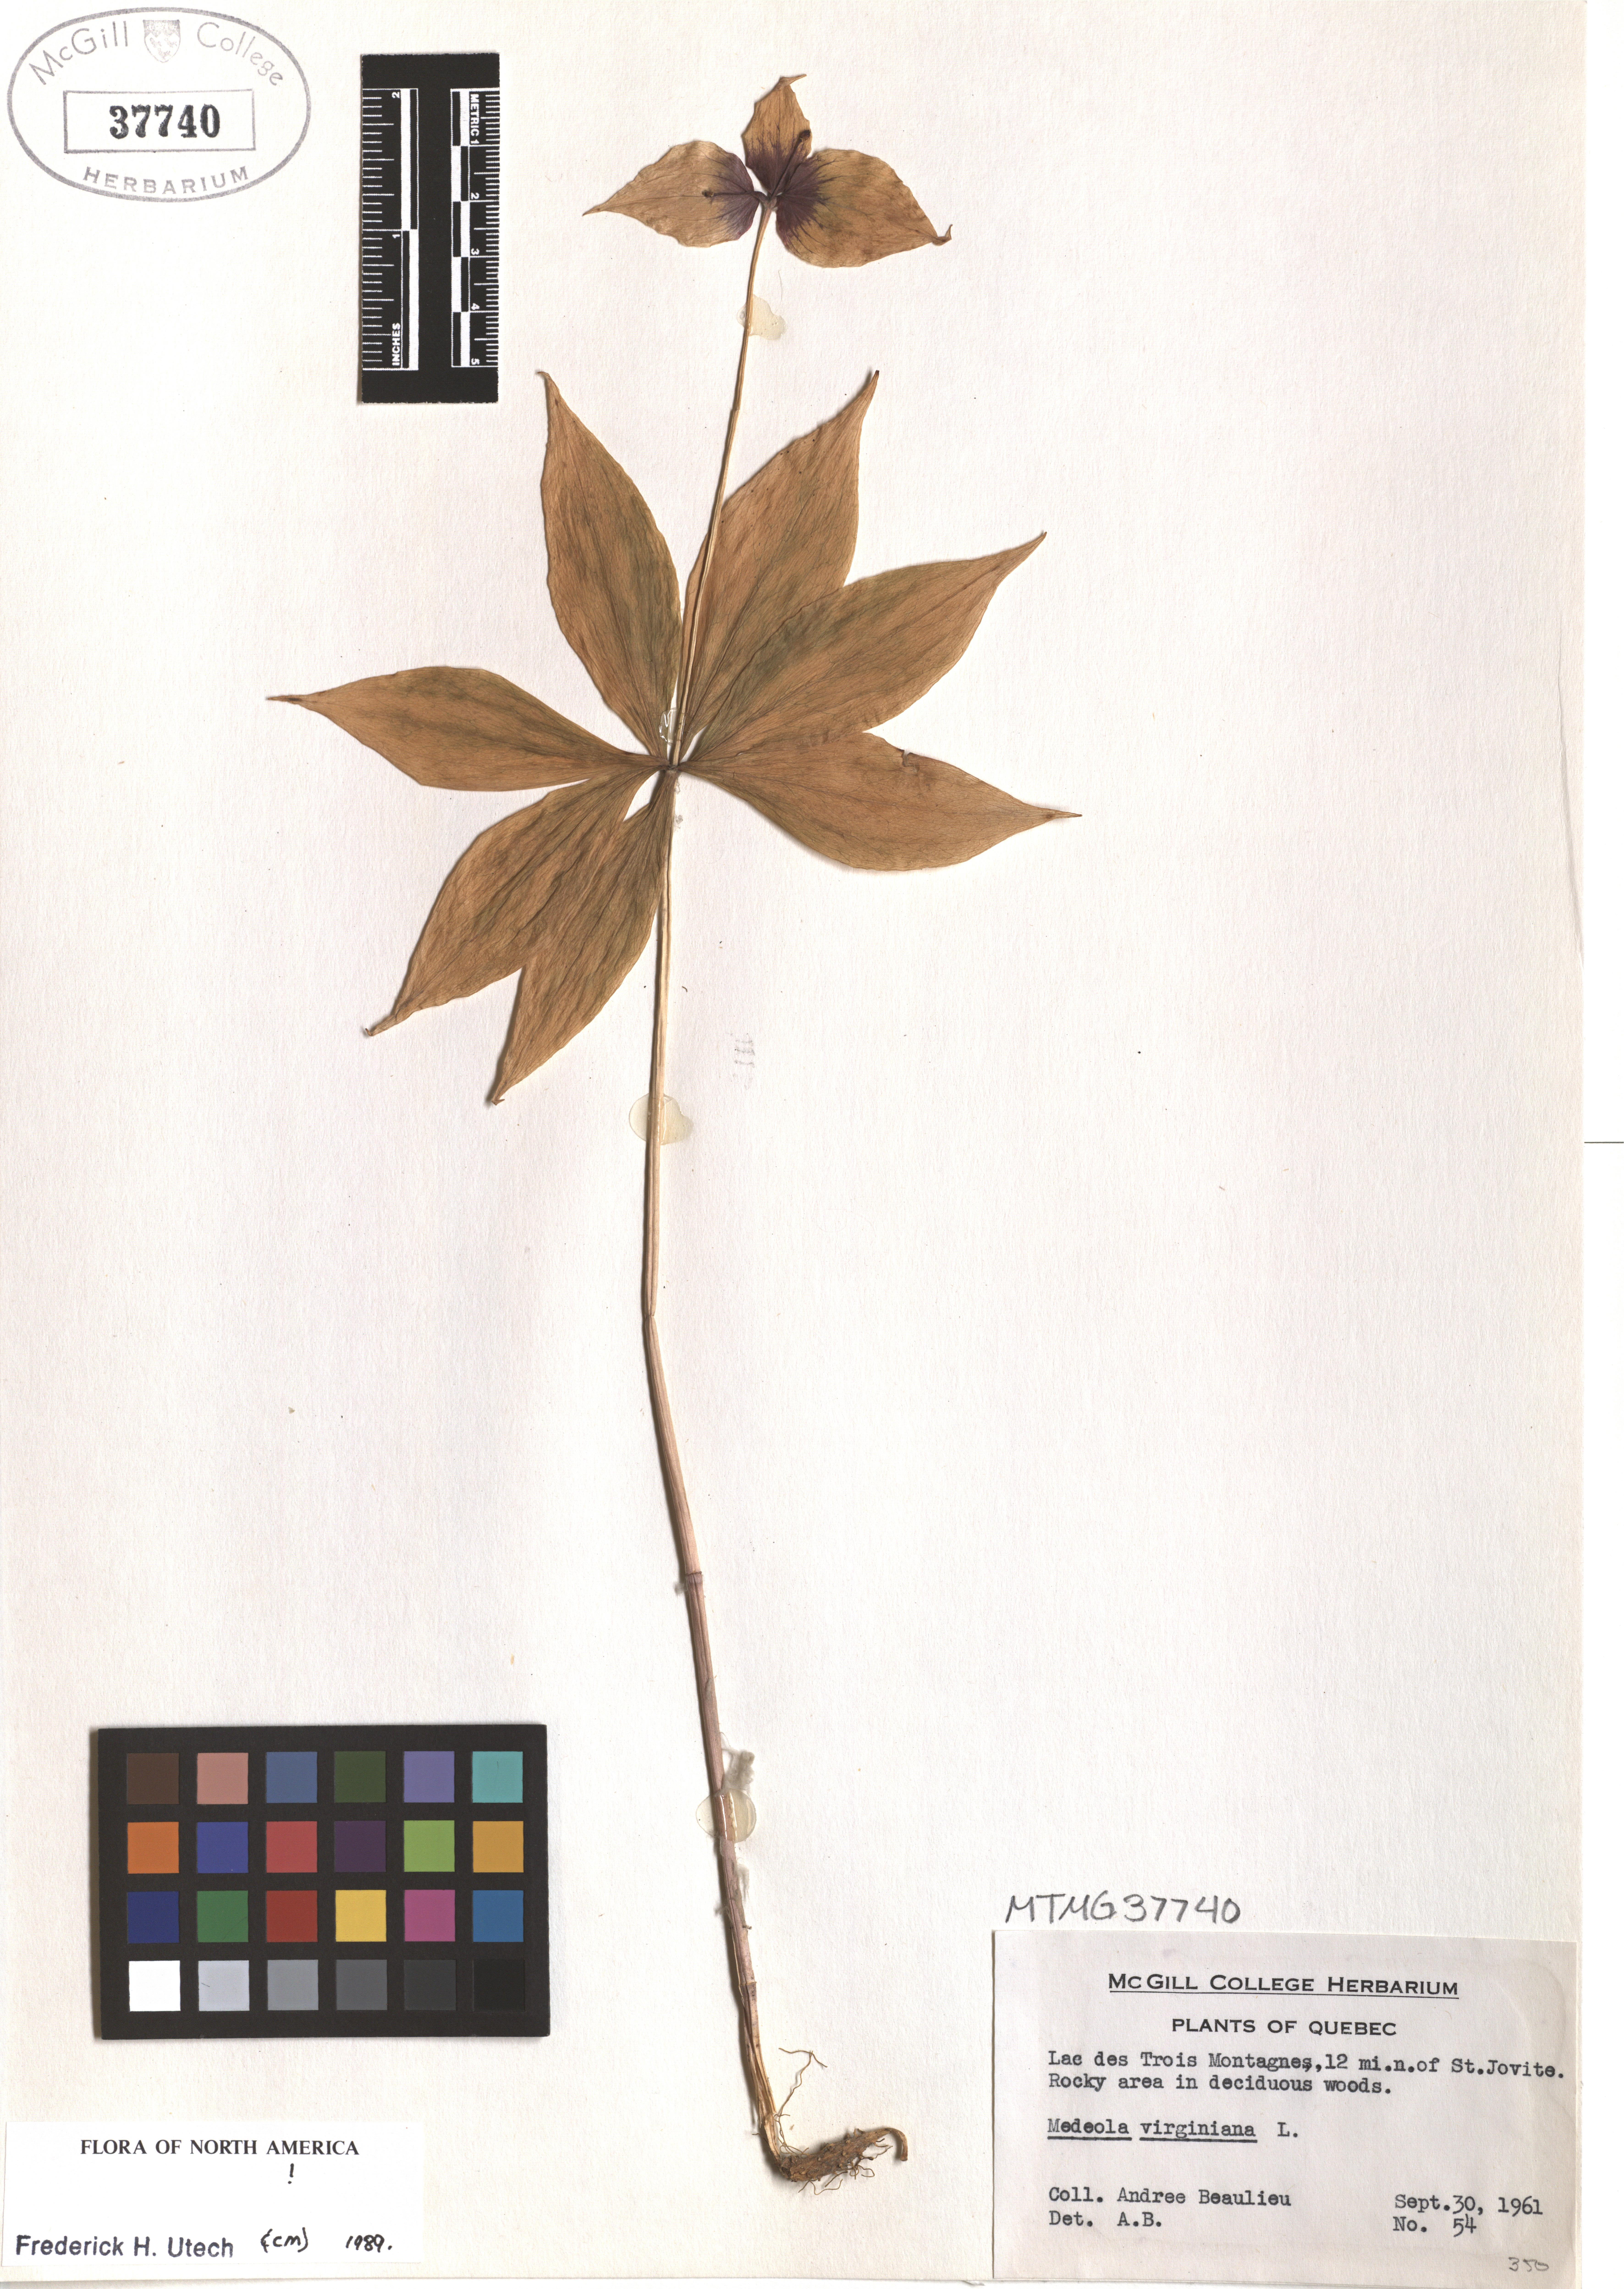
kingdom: Plantae
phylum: Tracheophyta
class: Liliopsida
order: Liliales
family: Liliaceae
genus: Medeola
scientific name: Medeola virginiana
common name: Indian cucumber-root
